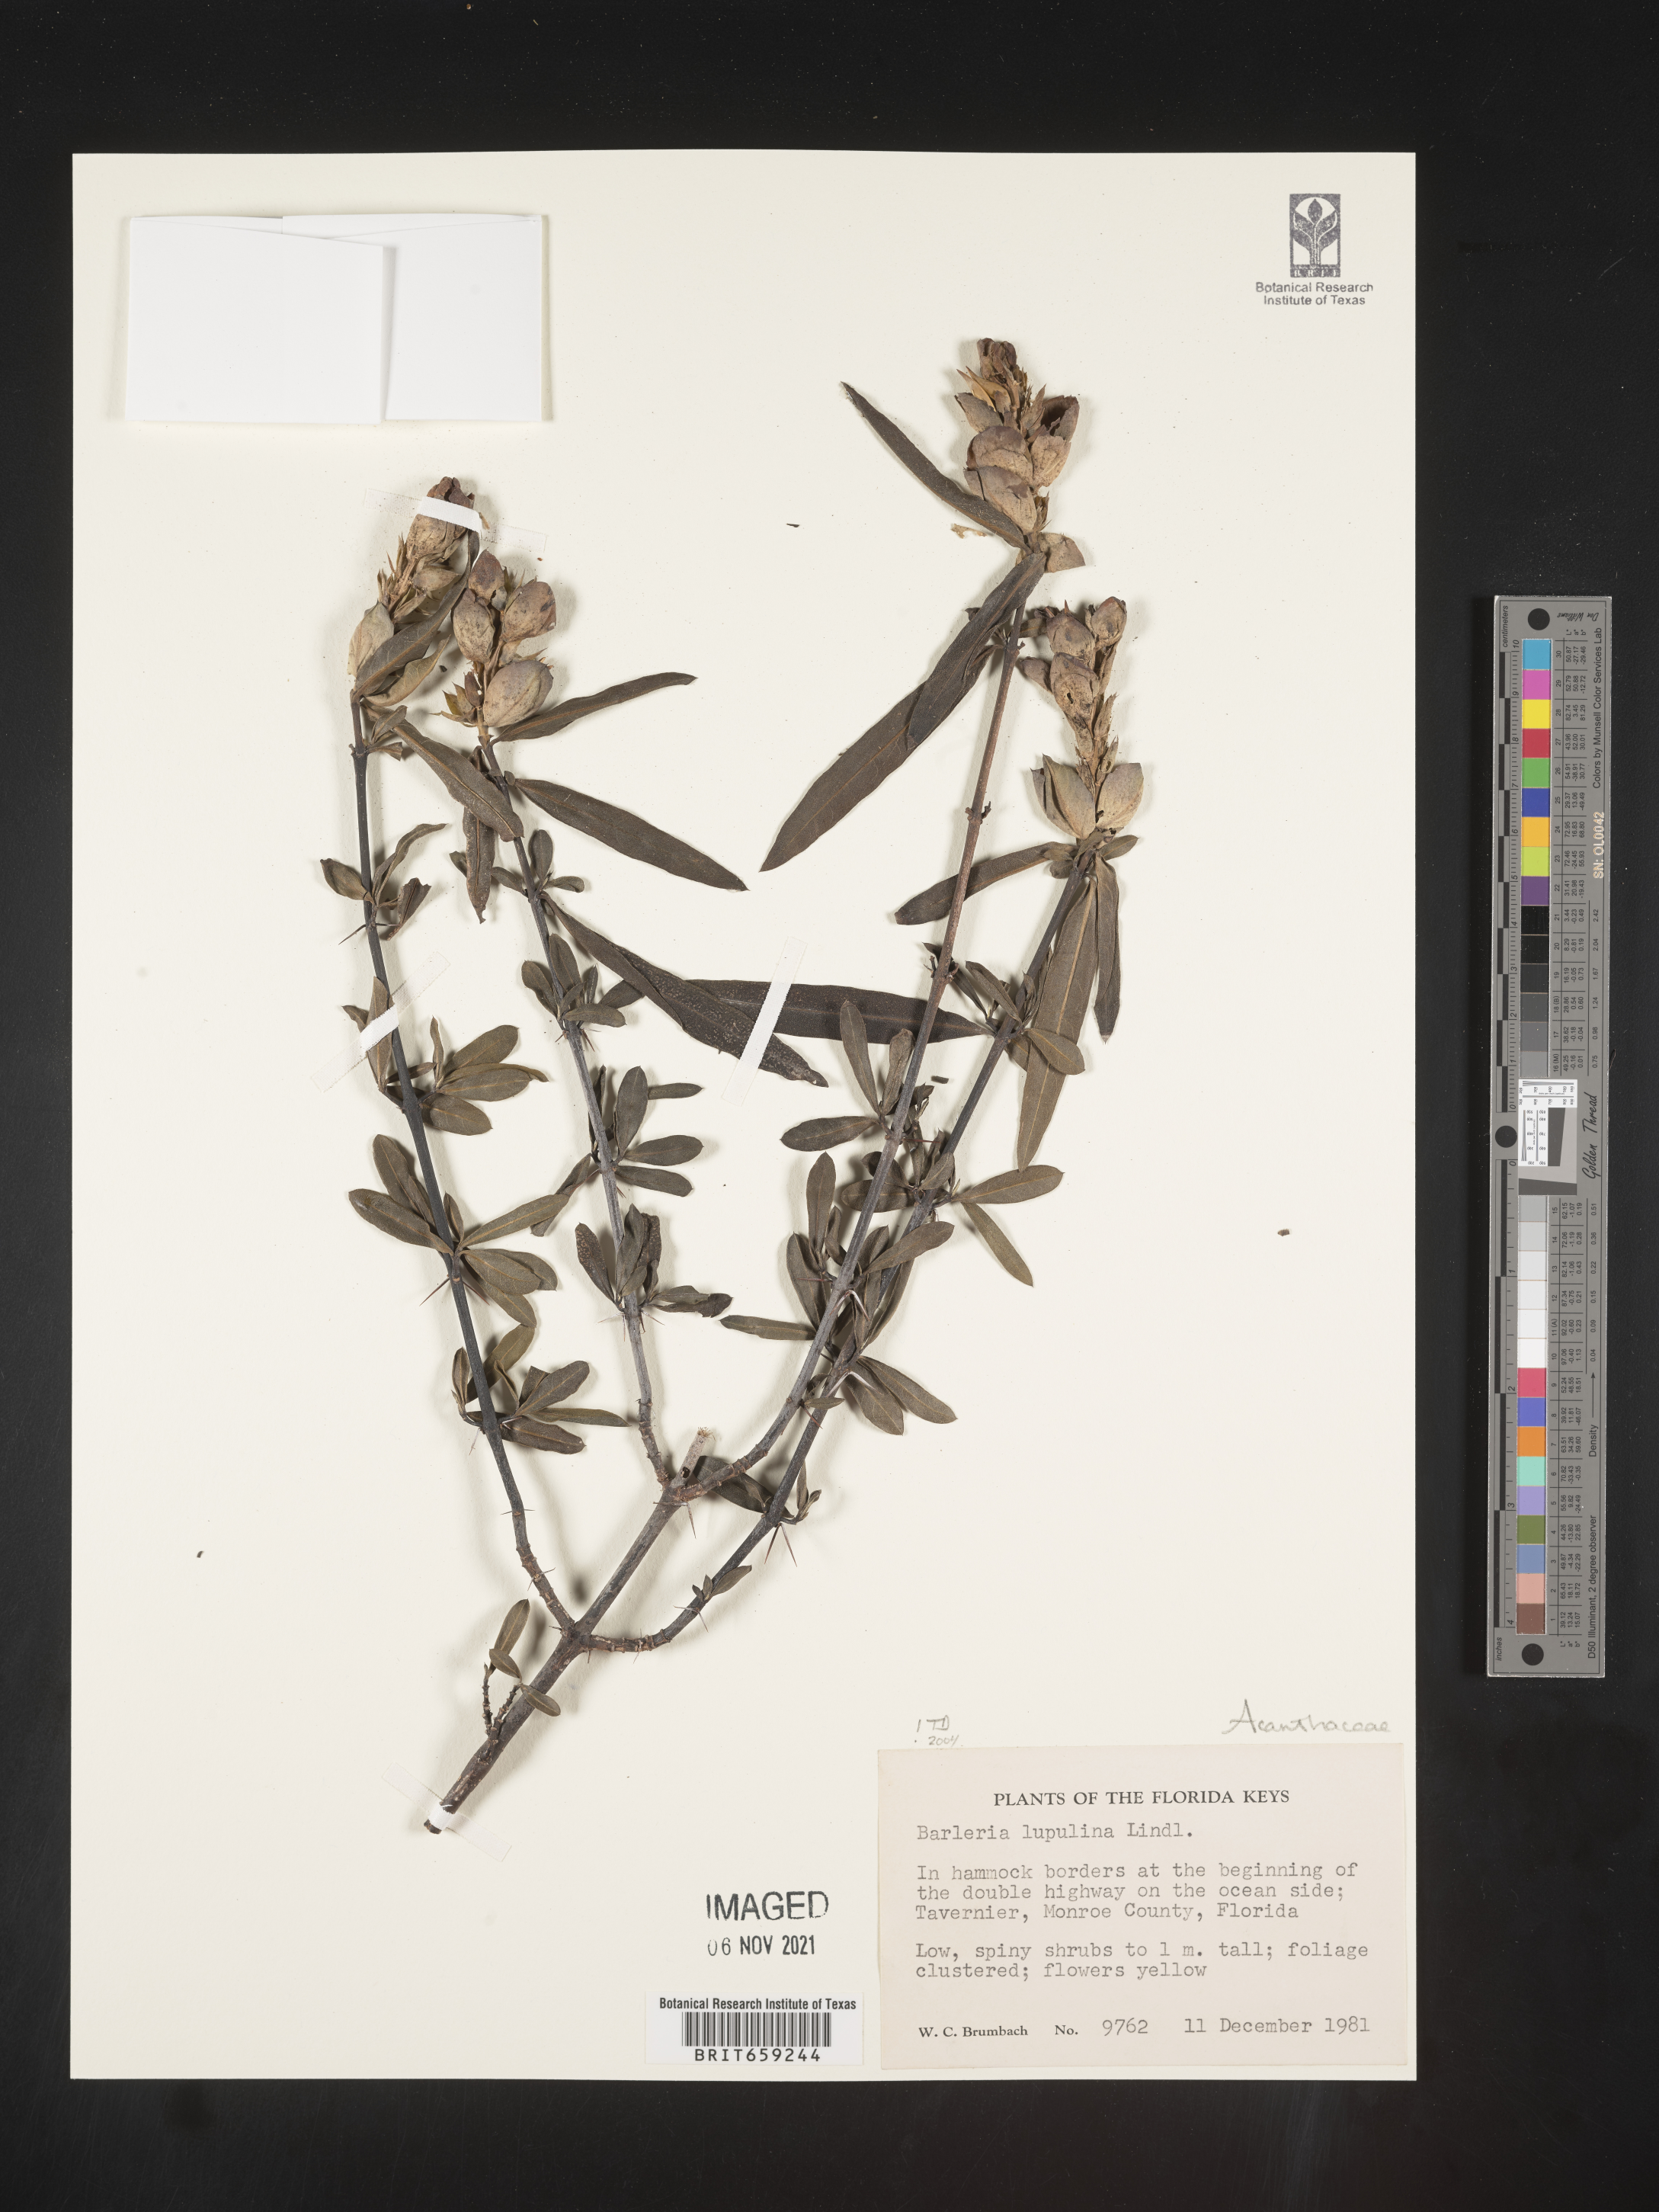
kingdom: Plantae
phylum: Tracheophyta
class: Magnoliopsida
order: Lamiales
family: Acanthaceae
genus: Barleria
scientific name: Barleria
